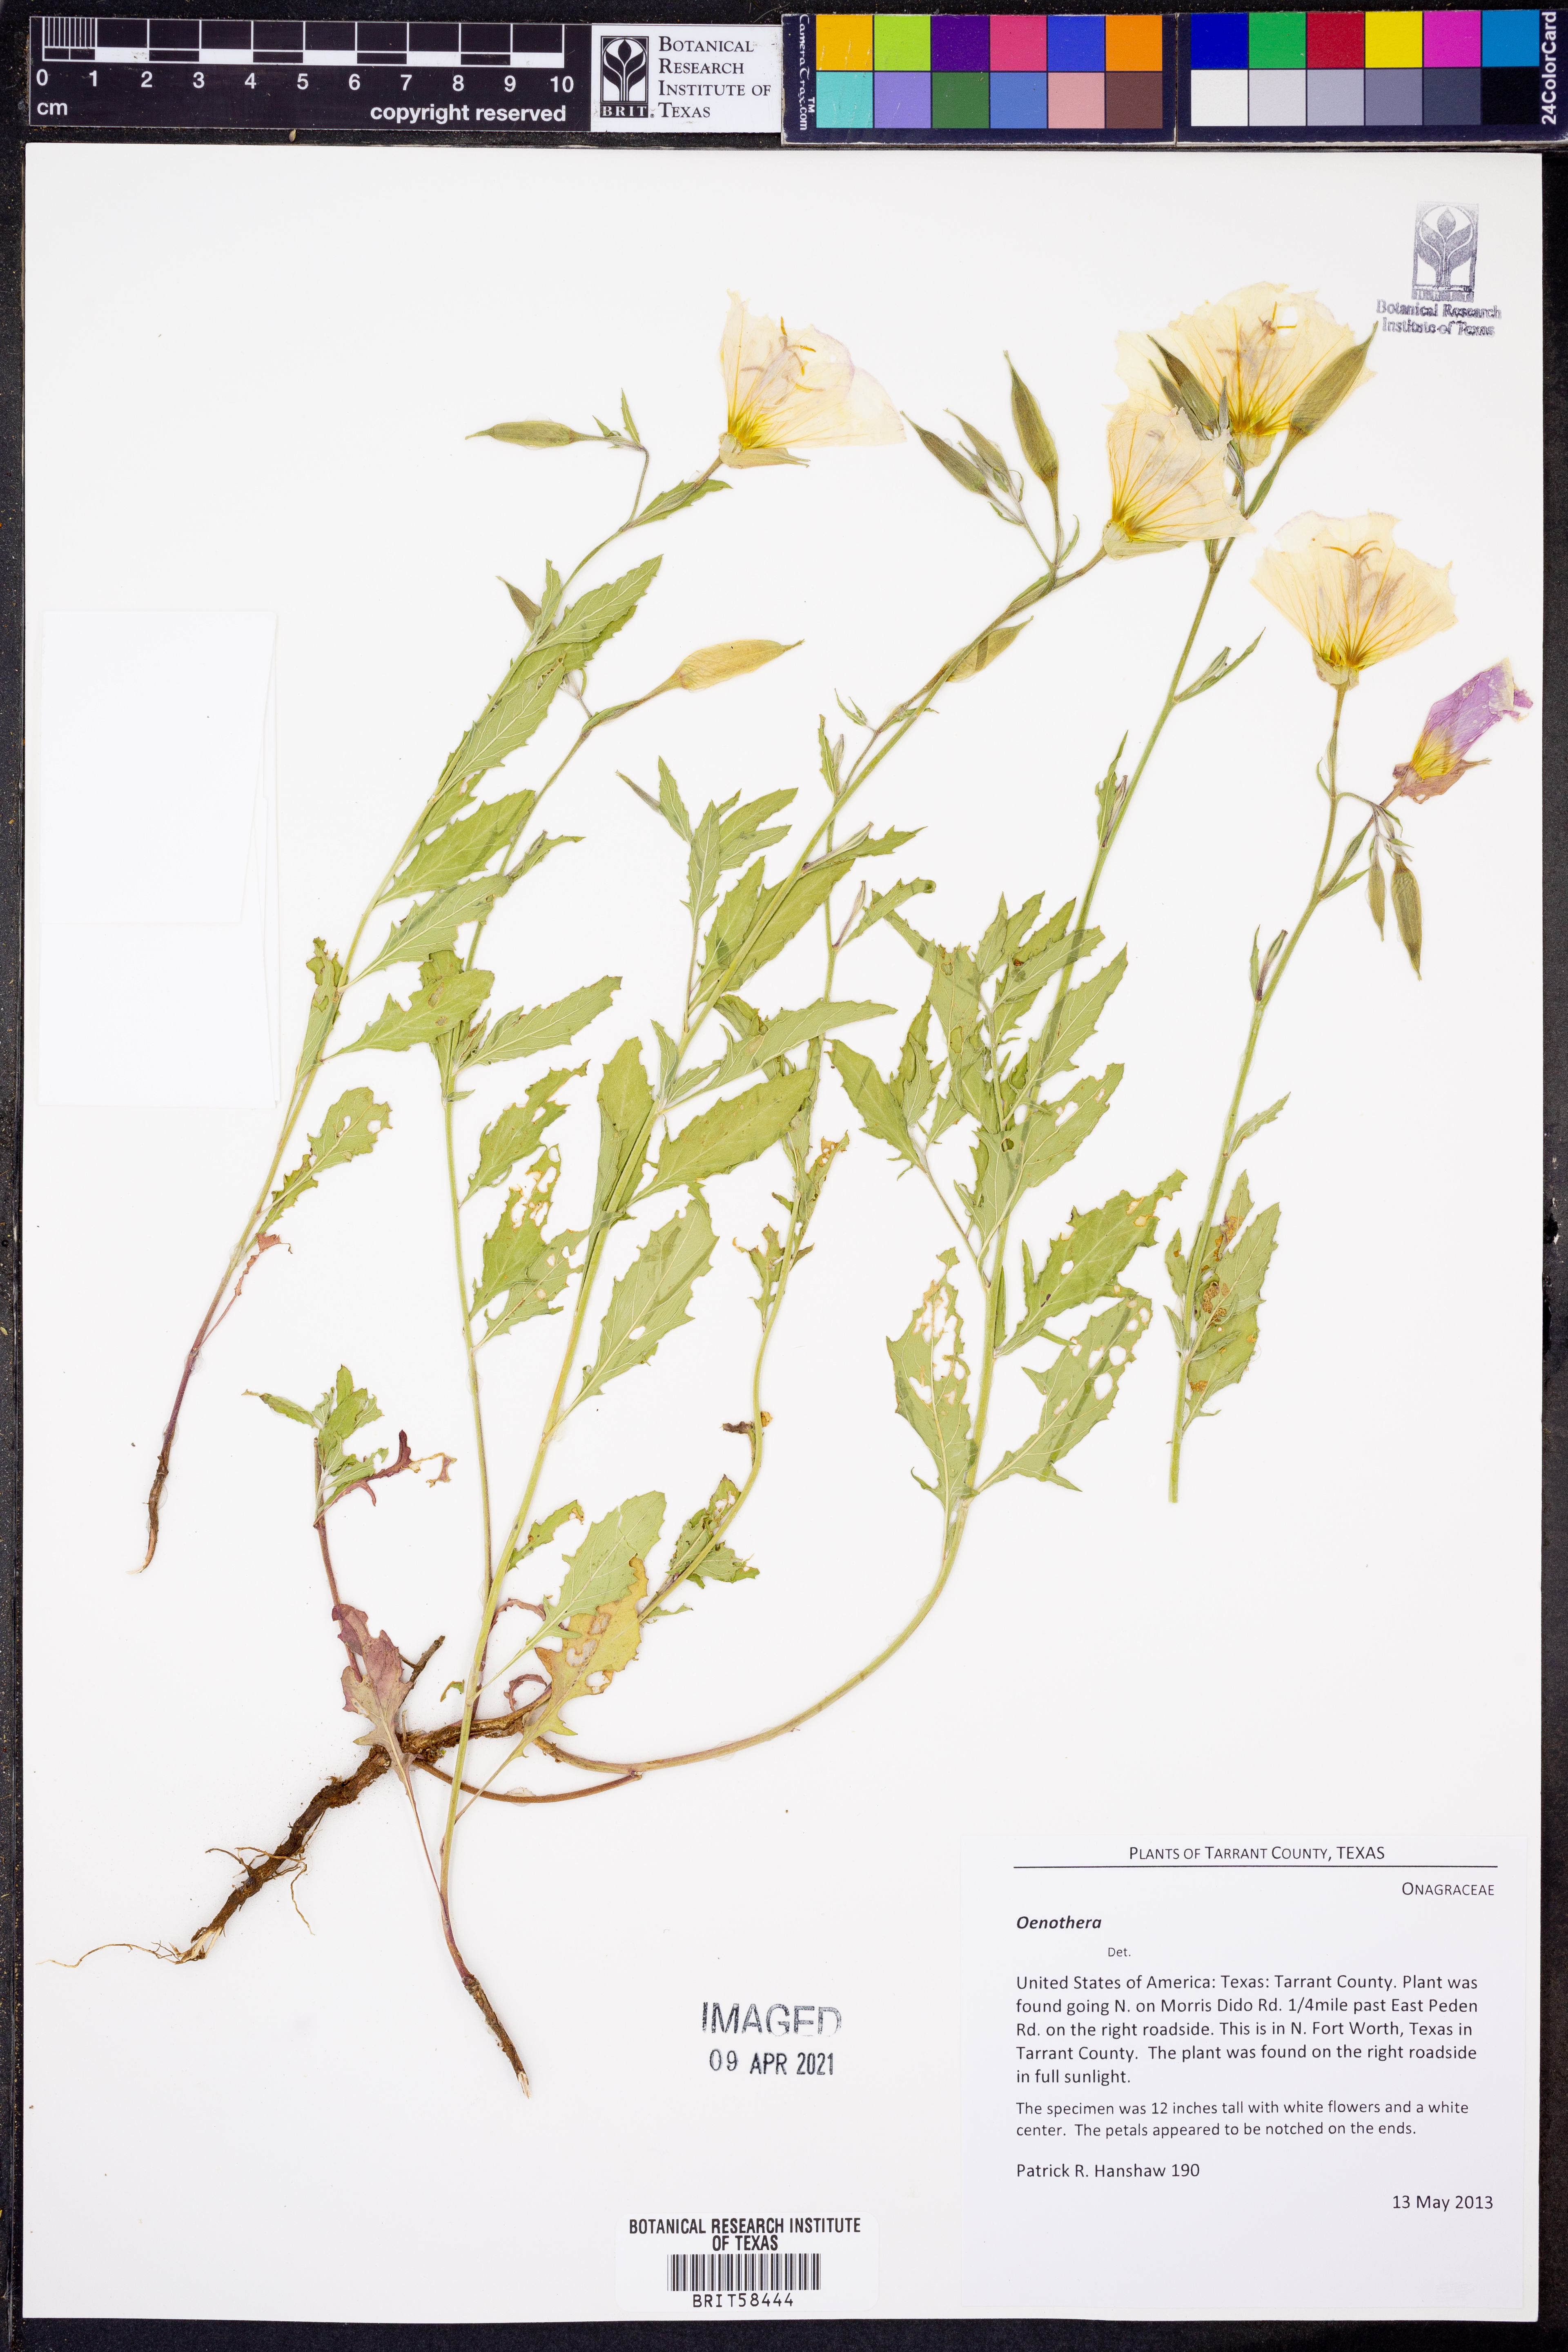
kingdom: Plantae
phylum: Tracheophyta
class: Magnoliopsida
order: Myrtales
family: Onagraceae
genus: Oenothera
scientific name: Oenothera
